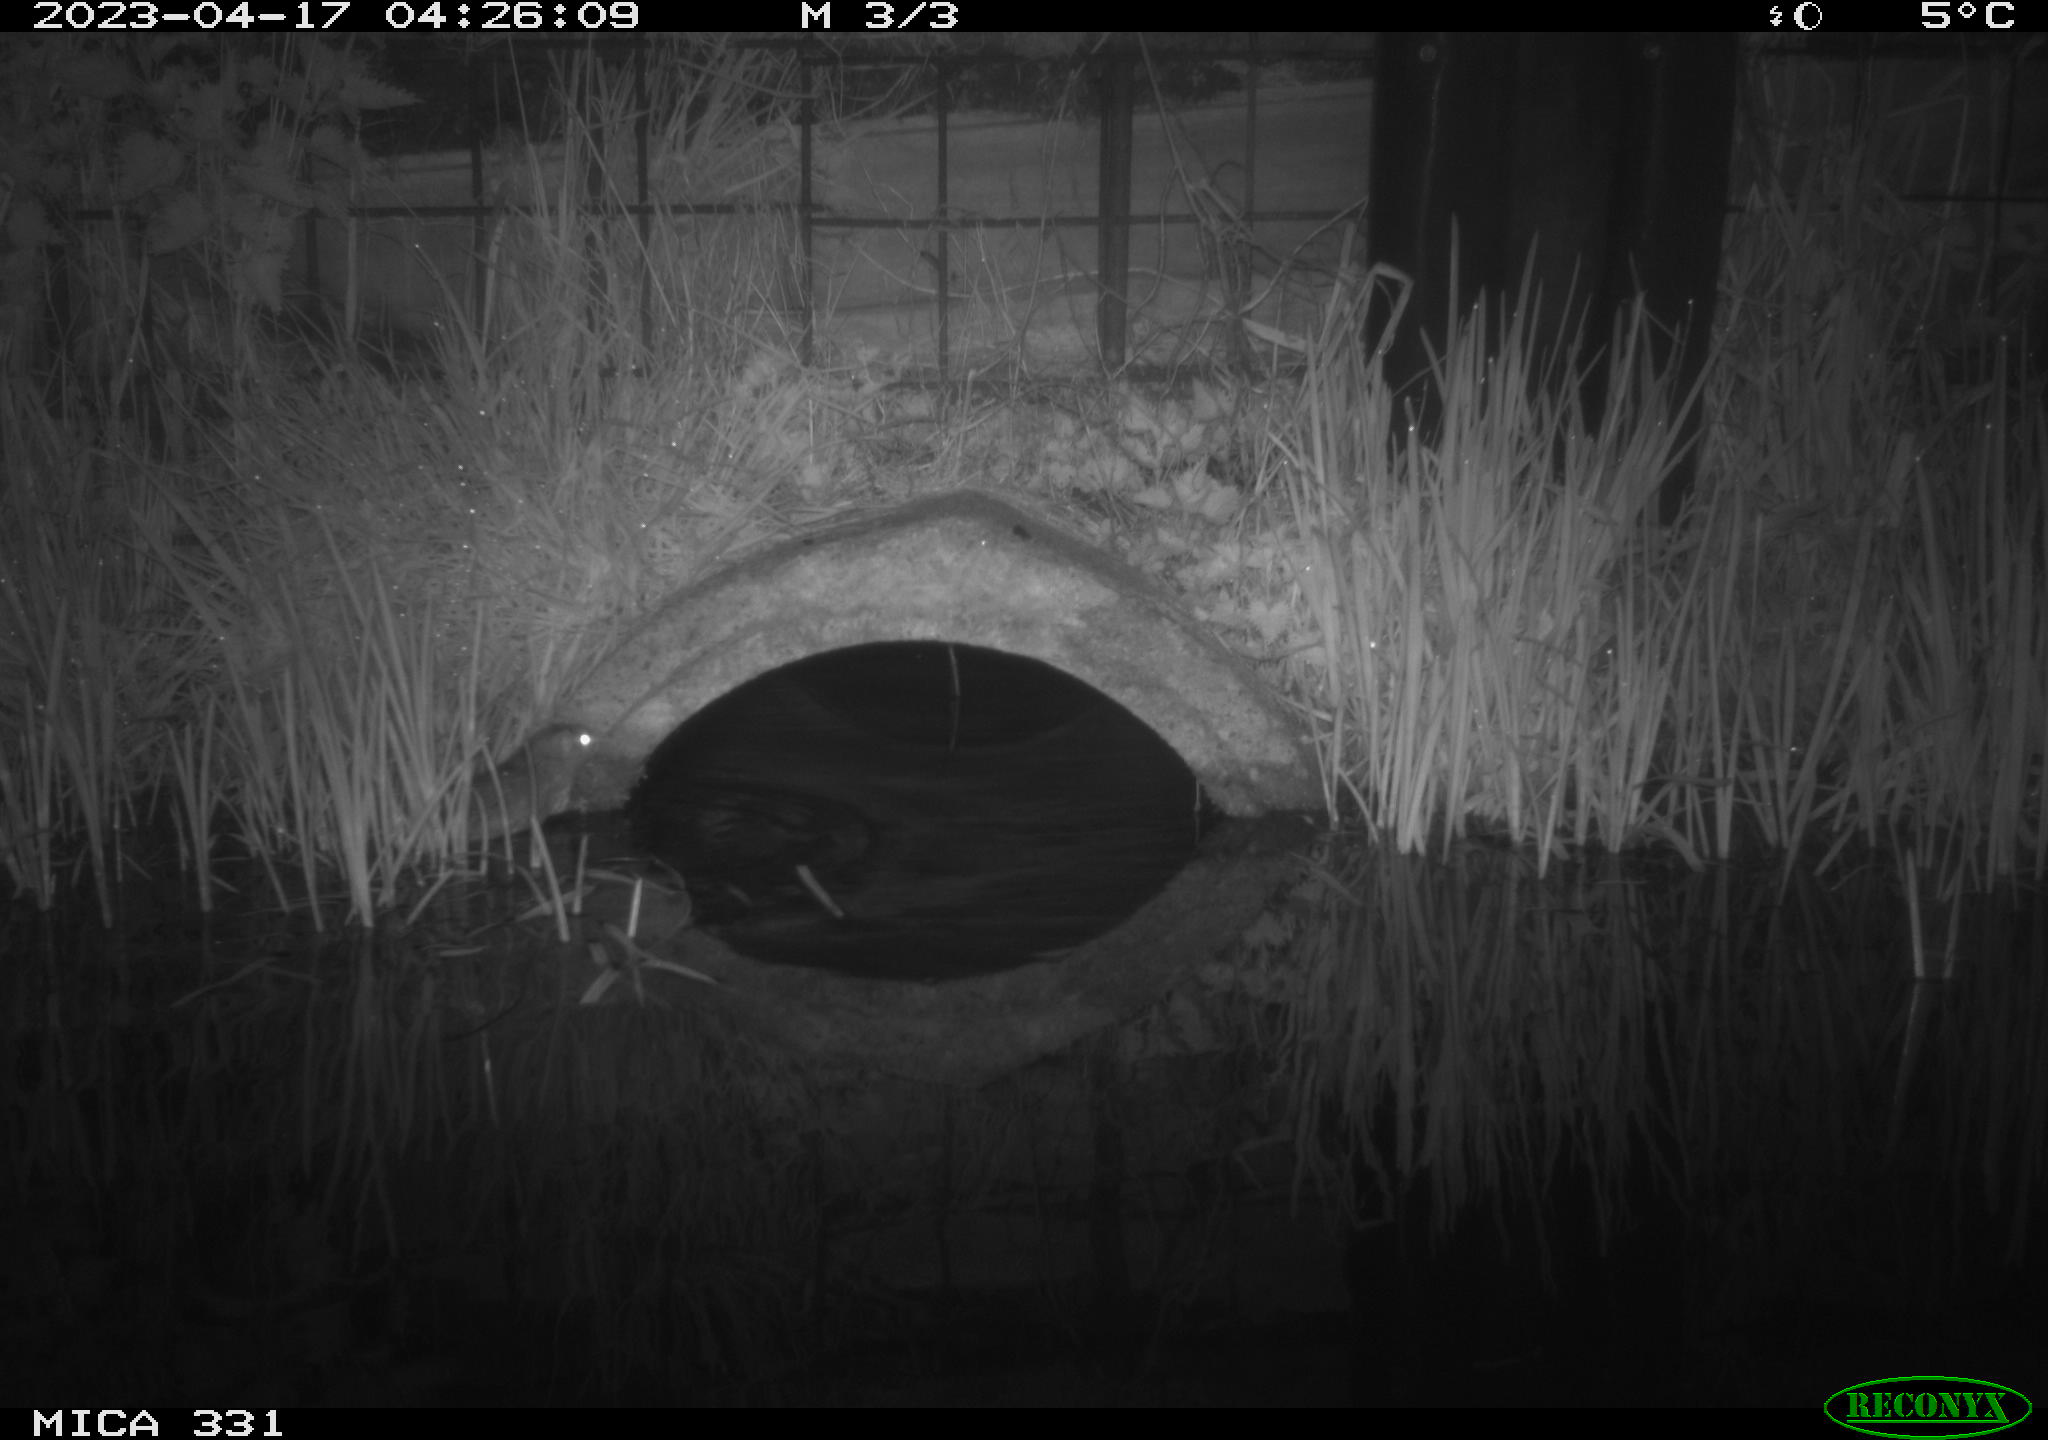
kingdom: Animalia
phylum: Chordata
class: Mammalia
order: Rodentia
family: Muridae
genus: Rattus
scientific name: Rattus norvegicus
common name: Brown rat
